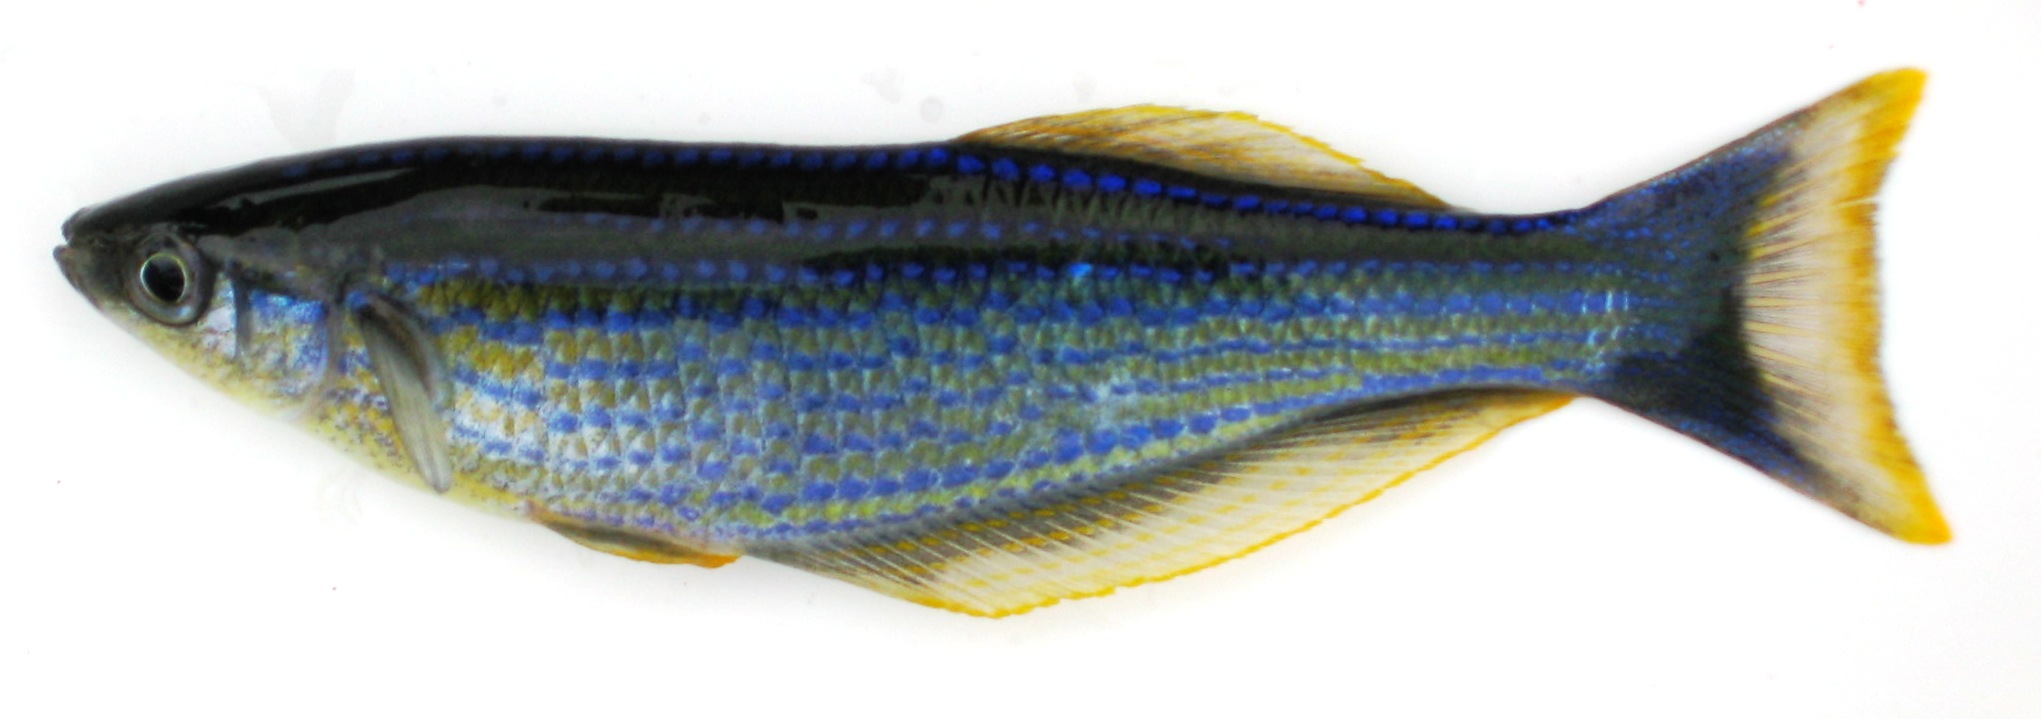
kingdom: Animalia
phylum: Chordata
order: Cyprinodontiformes
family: Poeciliidae
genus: Lamprichthys
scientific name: Lamprichthys tanganicanus
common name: Tanganyika killifish
